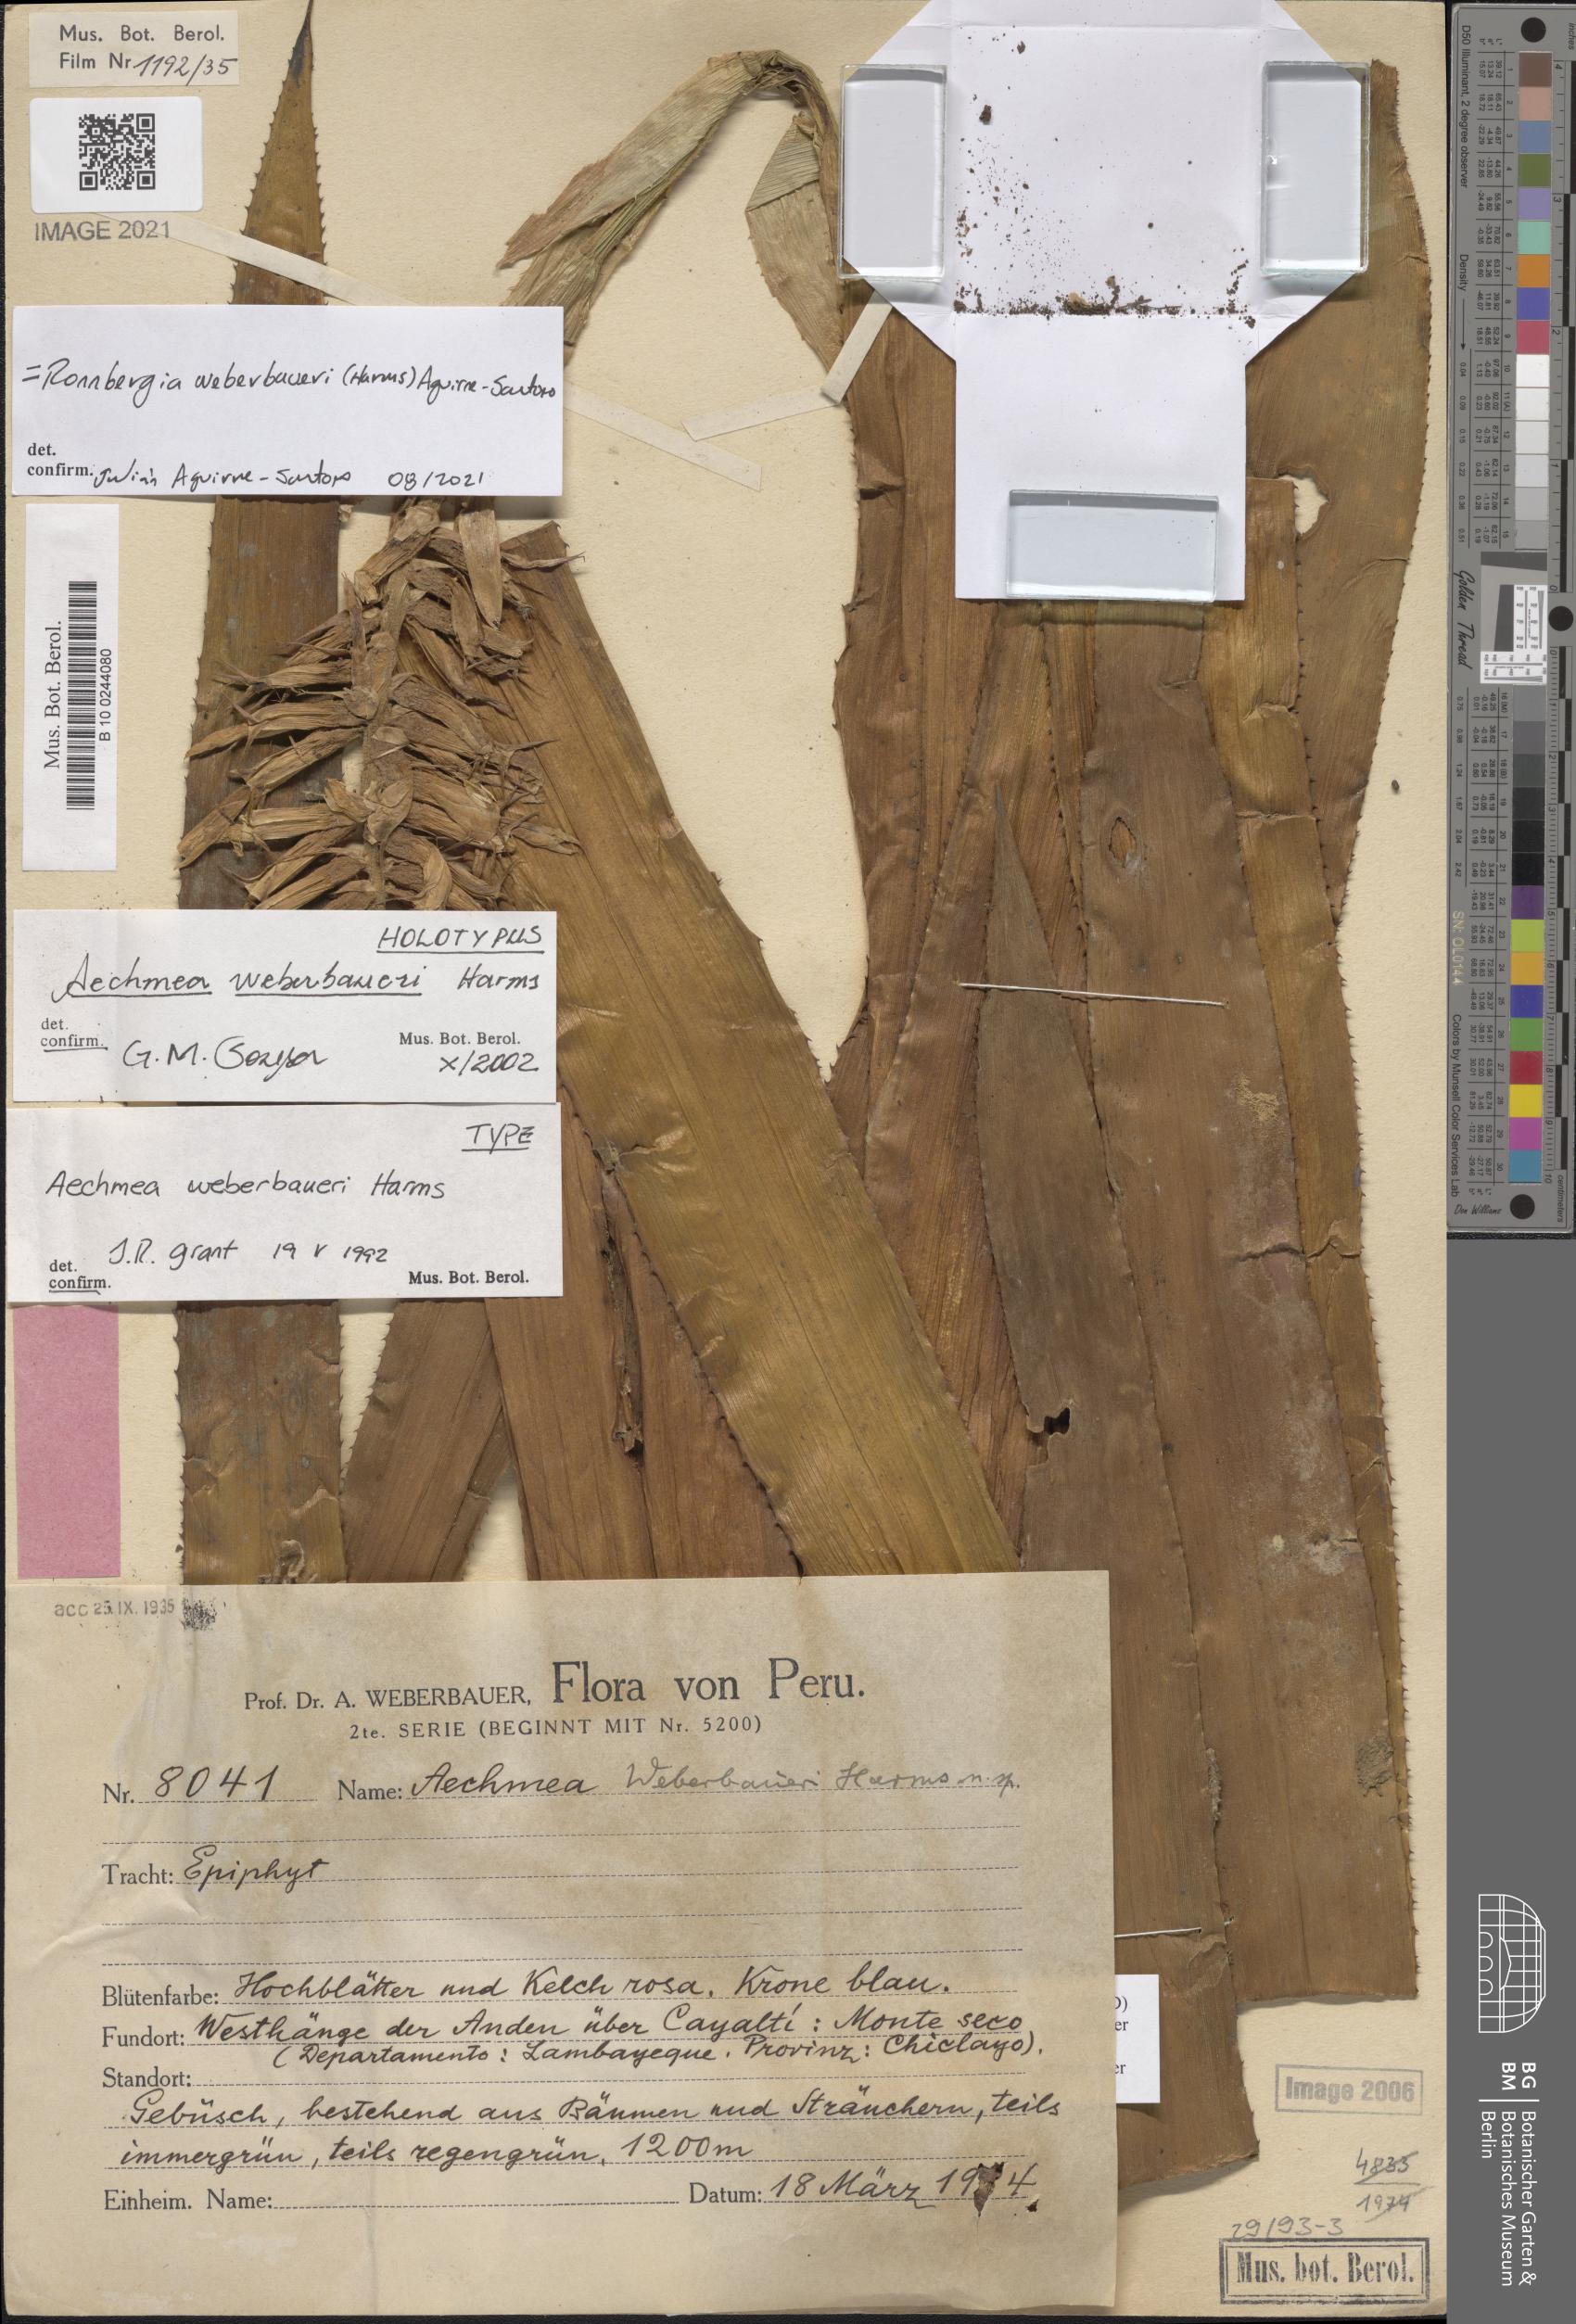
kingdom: Plantae
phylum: Tracheophyta
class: Liliopsida
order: Poales
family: Bromeliaceae
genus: Ronnbergia
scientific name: Ronnbergia weberbaueri
